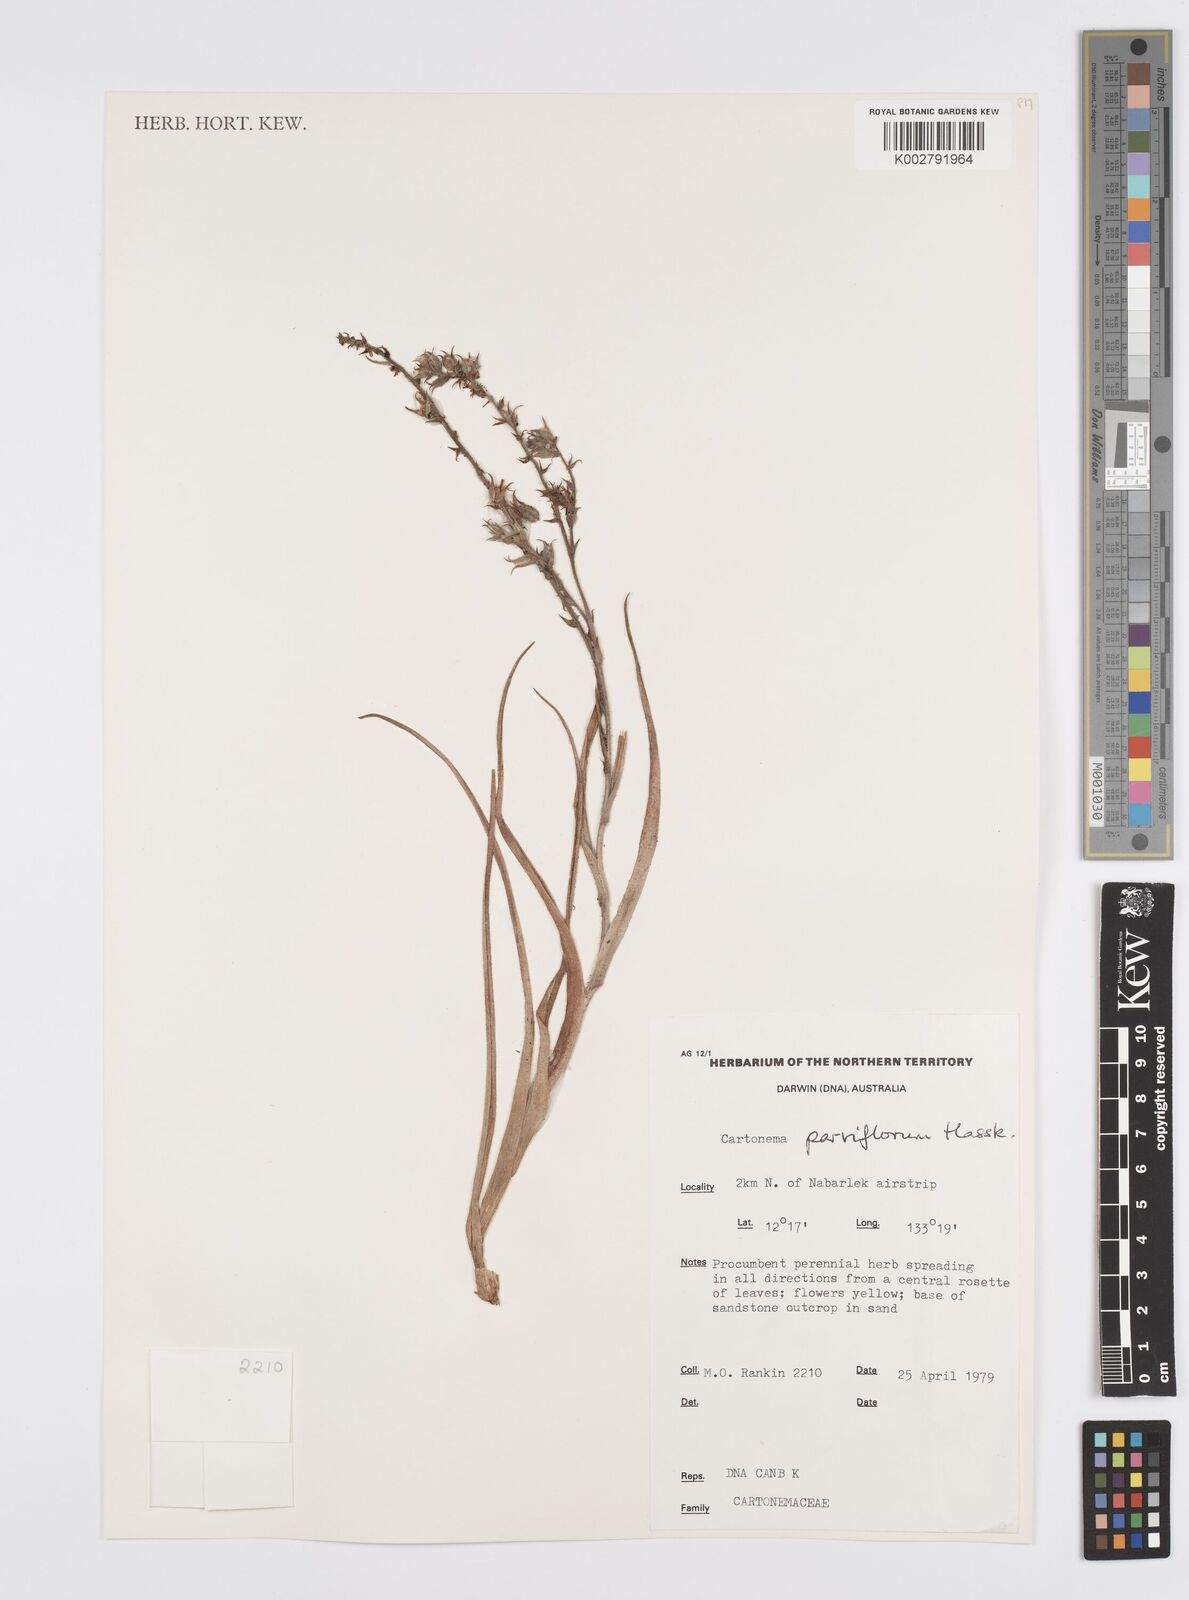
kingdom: Plantae
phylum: Tracheophyta
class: Liliopsida
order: Commelinales
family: Commelinaceae
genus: Cartonema
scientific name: Cartonema parviflorum
